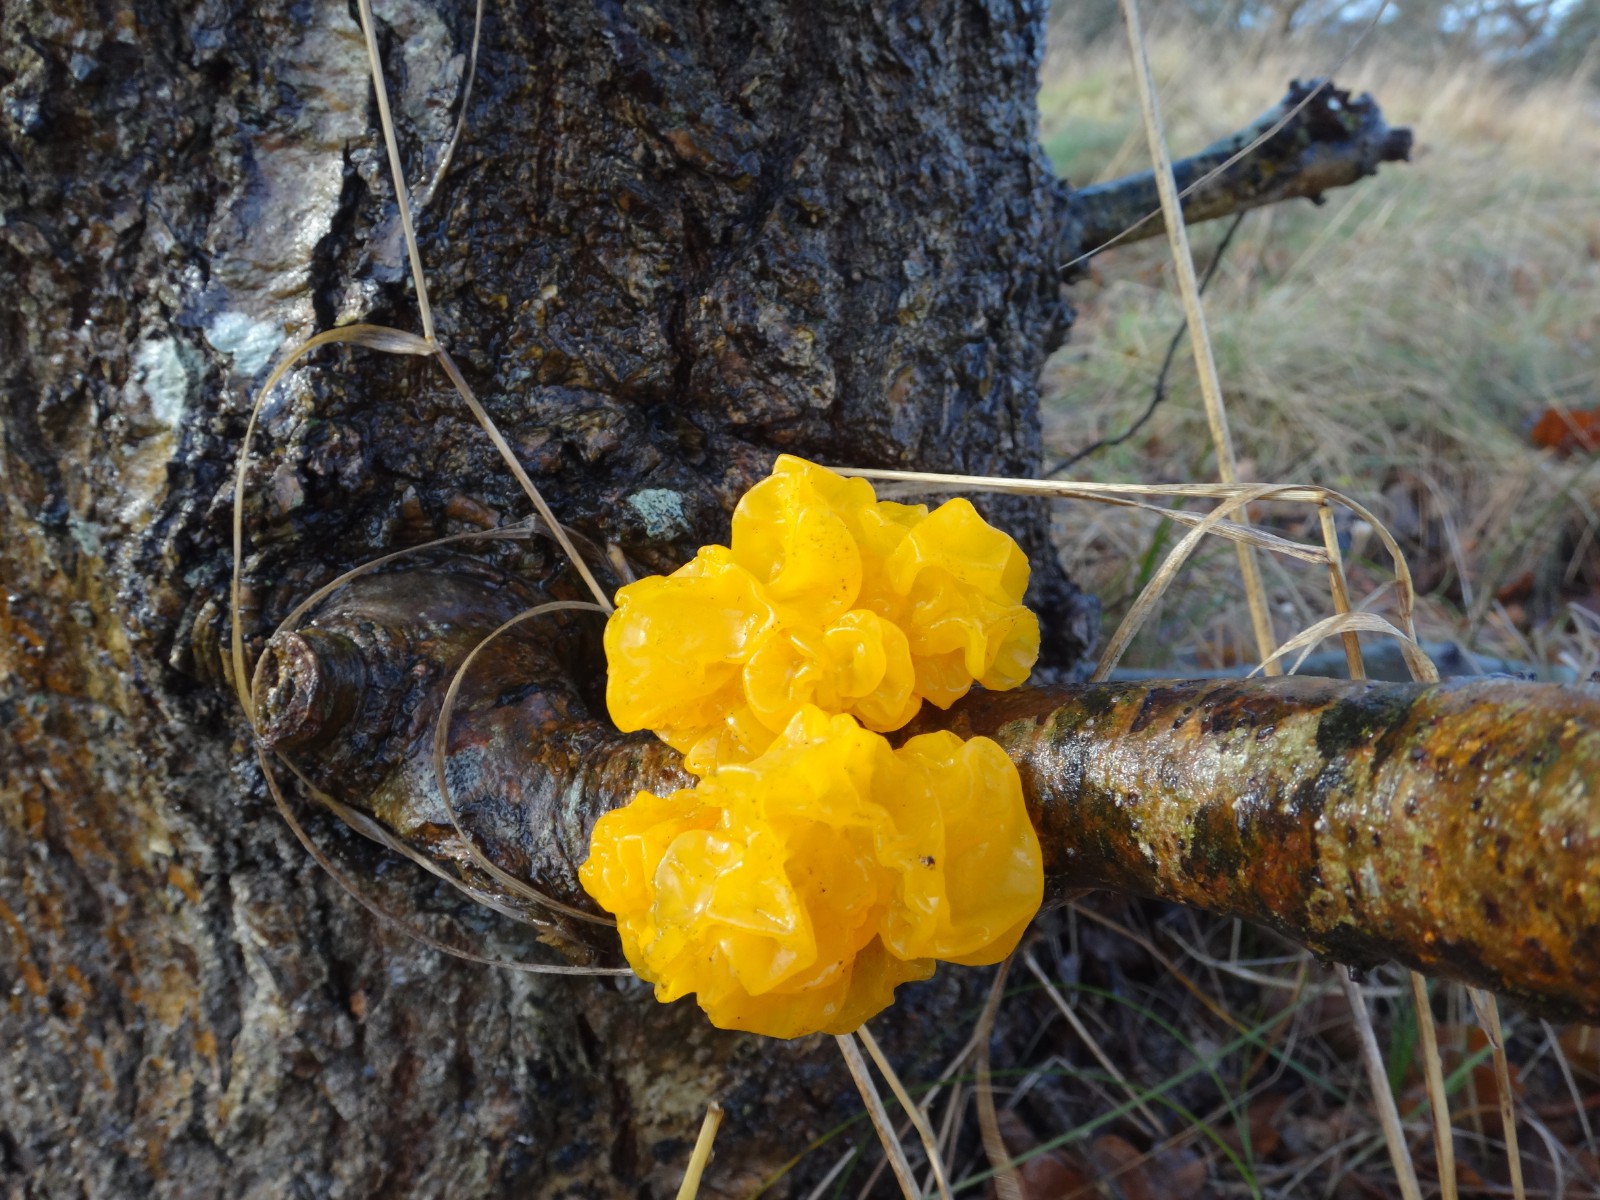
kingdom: Fungi
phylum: Basidiomycota
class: Tremellomycetes
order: Tremellales
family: Tremellaceae
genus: Tremella
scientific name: Tremella mesenterica
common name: gul bævresvamp
